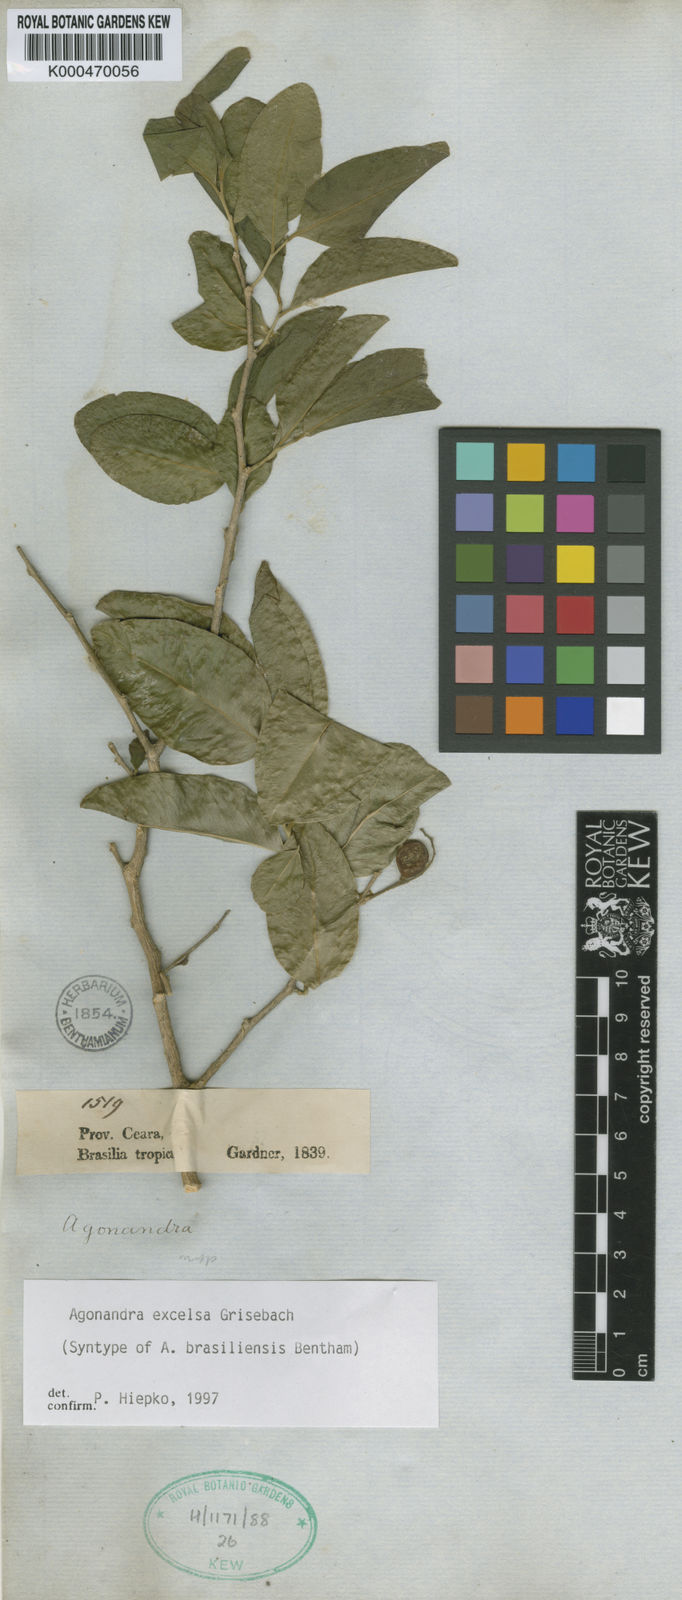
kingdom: Plantae
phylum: Tracheophyta
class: Magnoliopsida
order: Santalales
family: Opiliaceae
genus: Agonandra
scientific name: Agonandra excelsa
